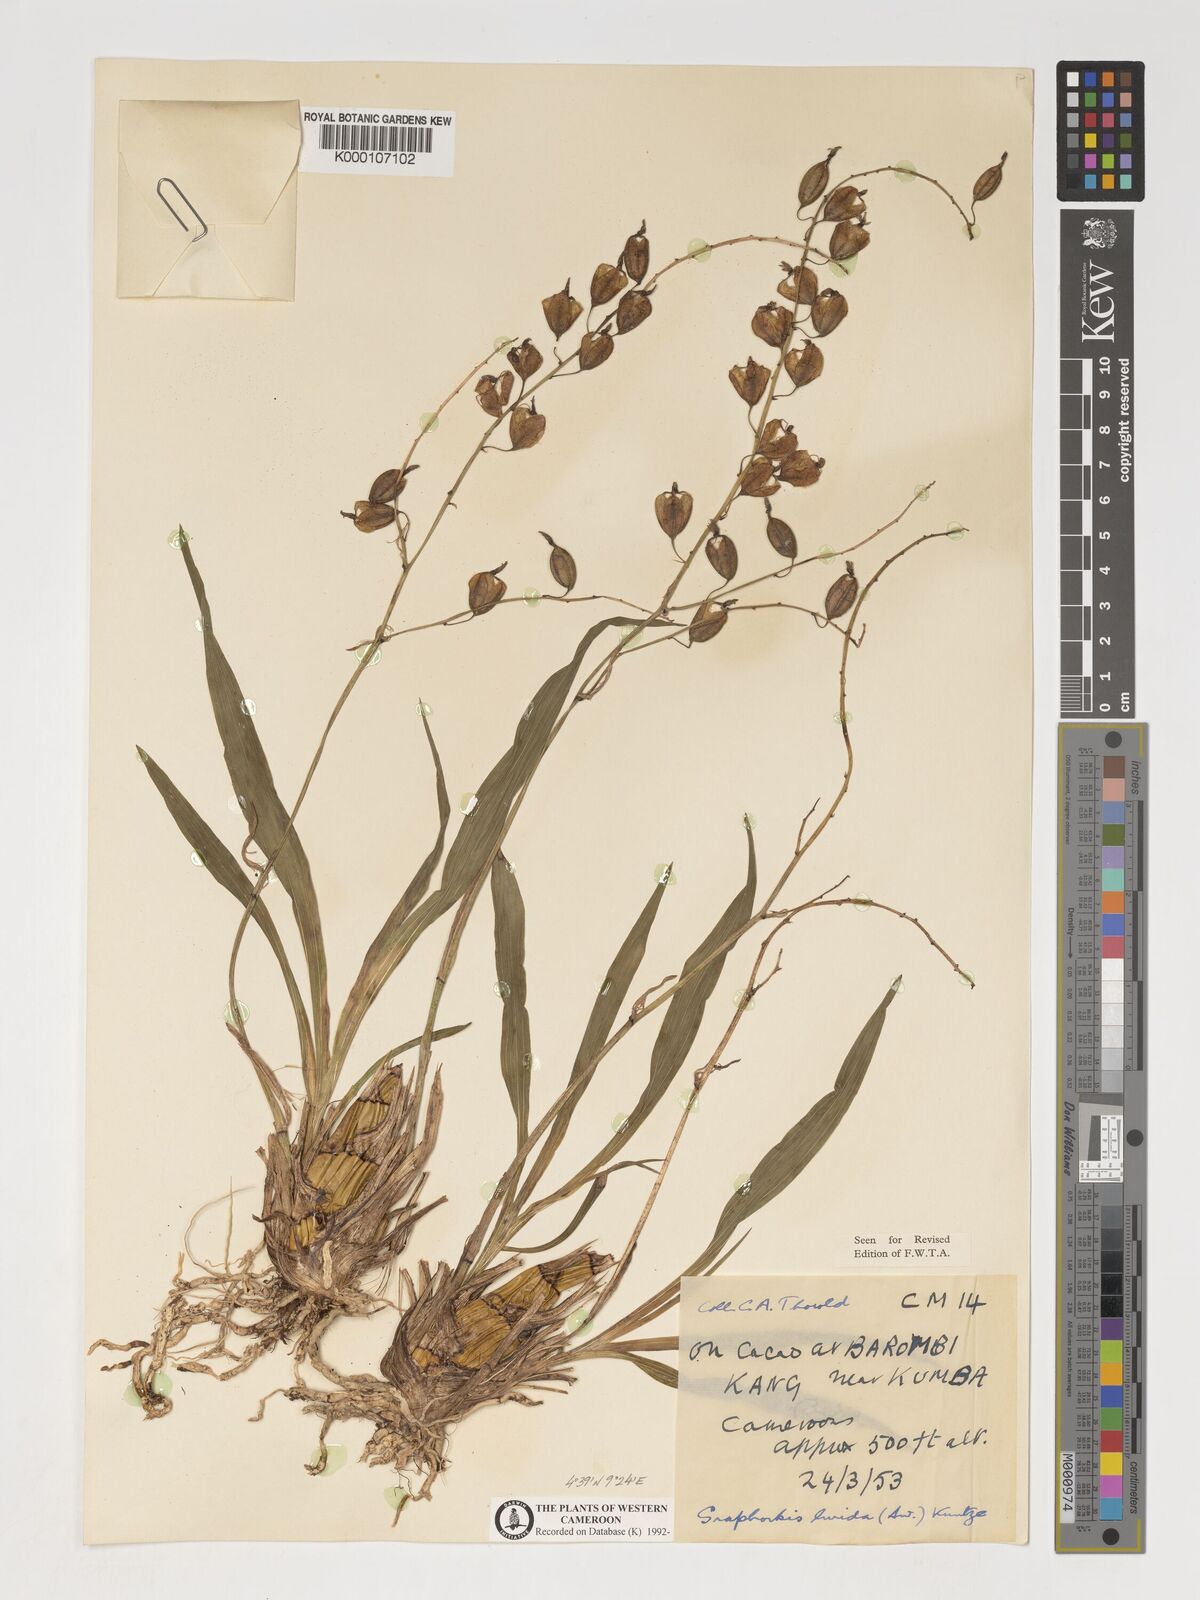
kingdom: Plantae
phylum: Tracheophyta
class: Liliopsida
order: Asparagales
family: Orchidaceae
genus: Graphorkis
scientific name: Graphorkis lurida
